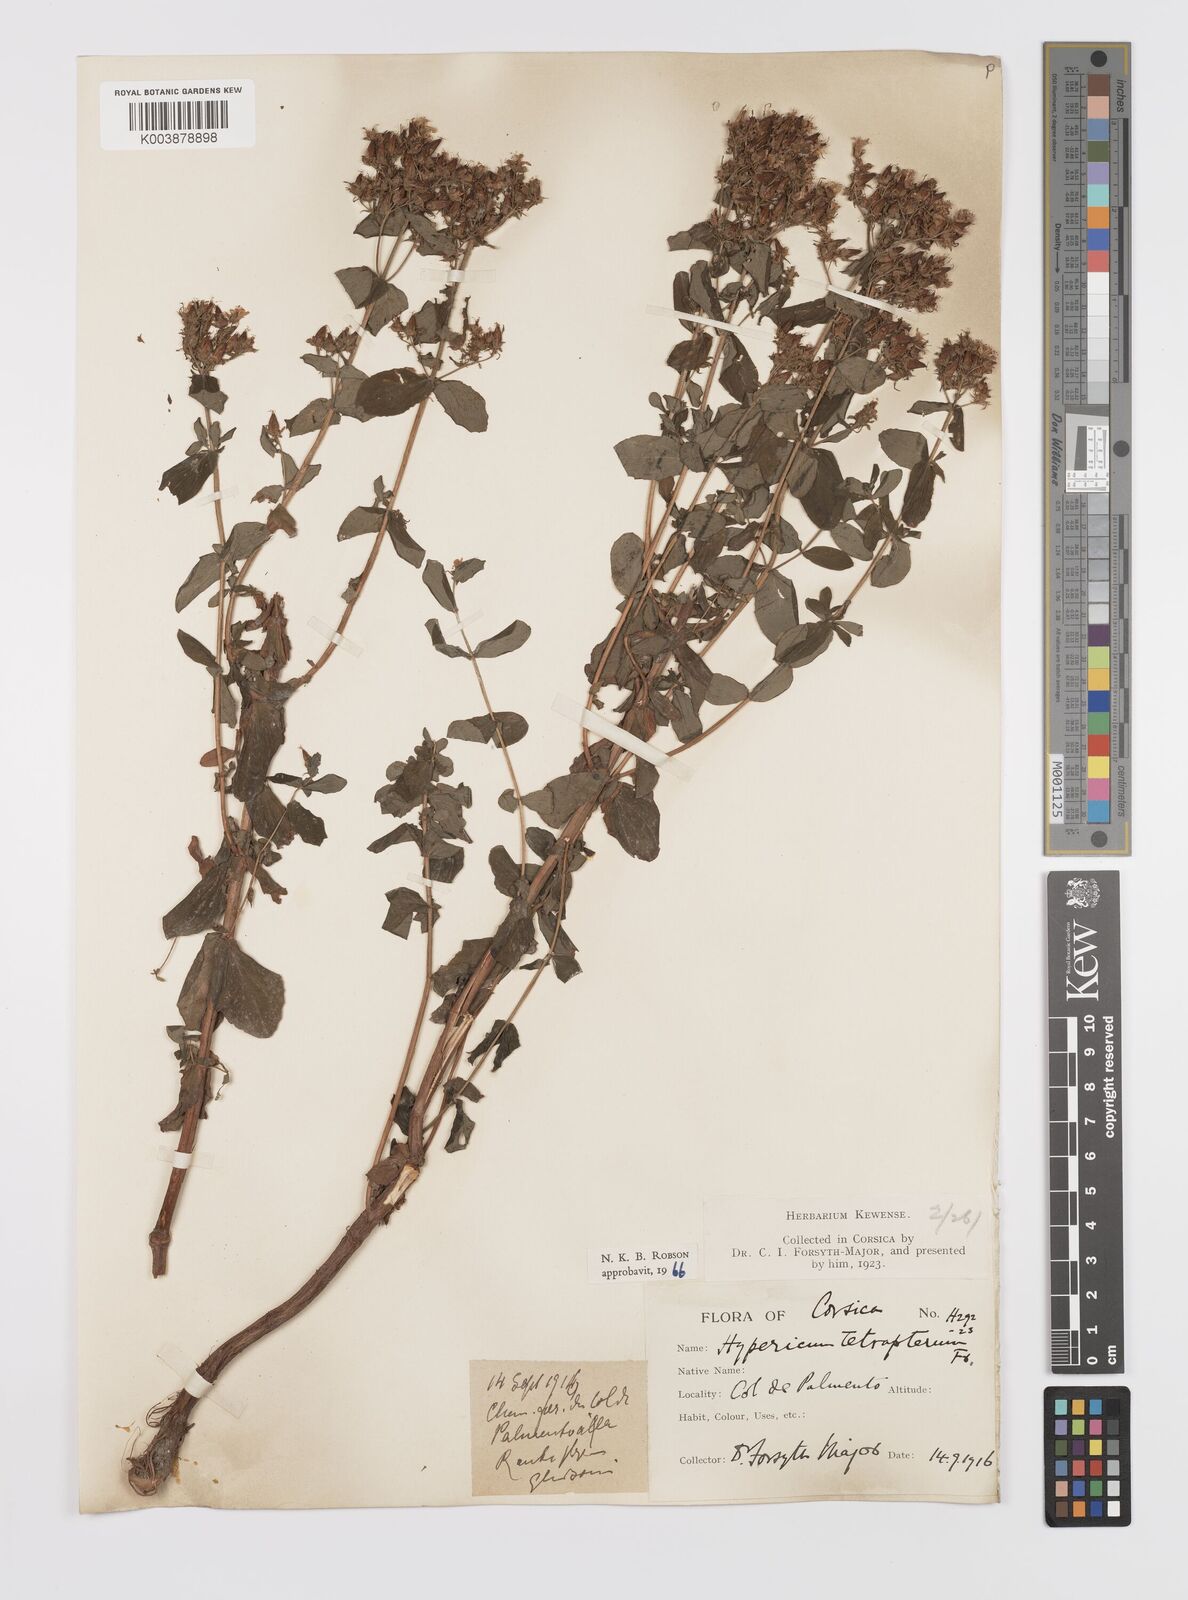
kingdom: Plantae
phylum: Tracheophyta
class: Magnoliopsida
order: Malpighiales
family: Hypericaceae
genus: Hypericum
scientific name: Hypericum tetrapterum
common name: Square-stalked st. john's-wort
